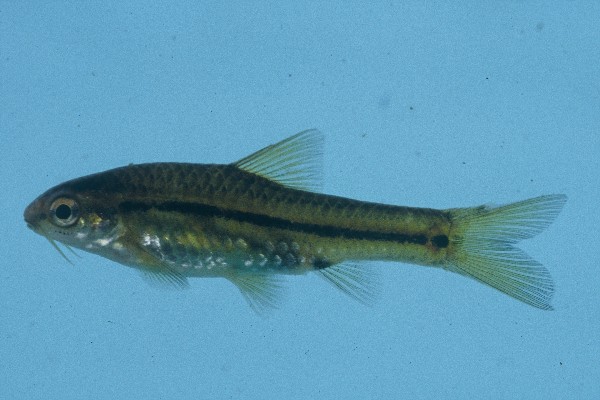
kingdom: Animalia
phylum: Chordata
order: Cypriniformes
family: Cyprinidae
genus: Enteromius
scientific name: Enteromius brevipinnis
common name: Shortfin barb
